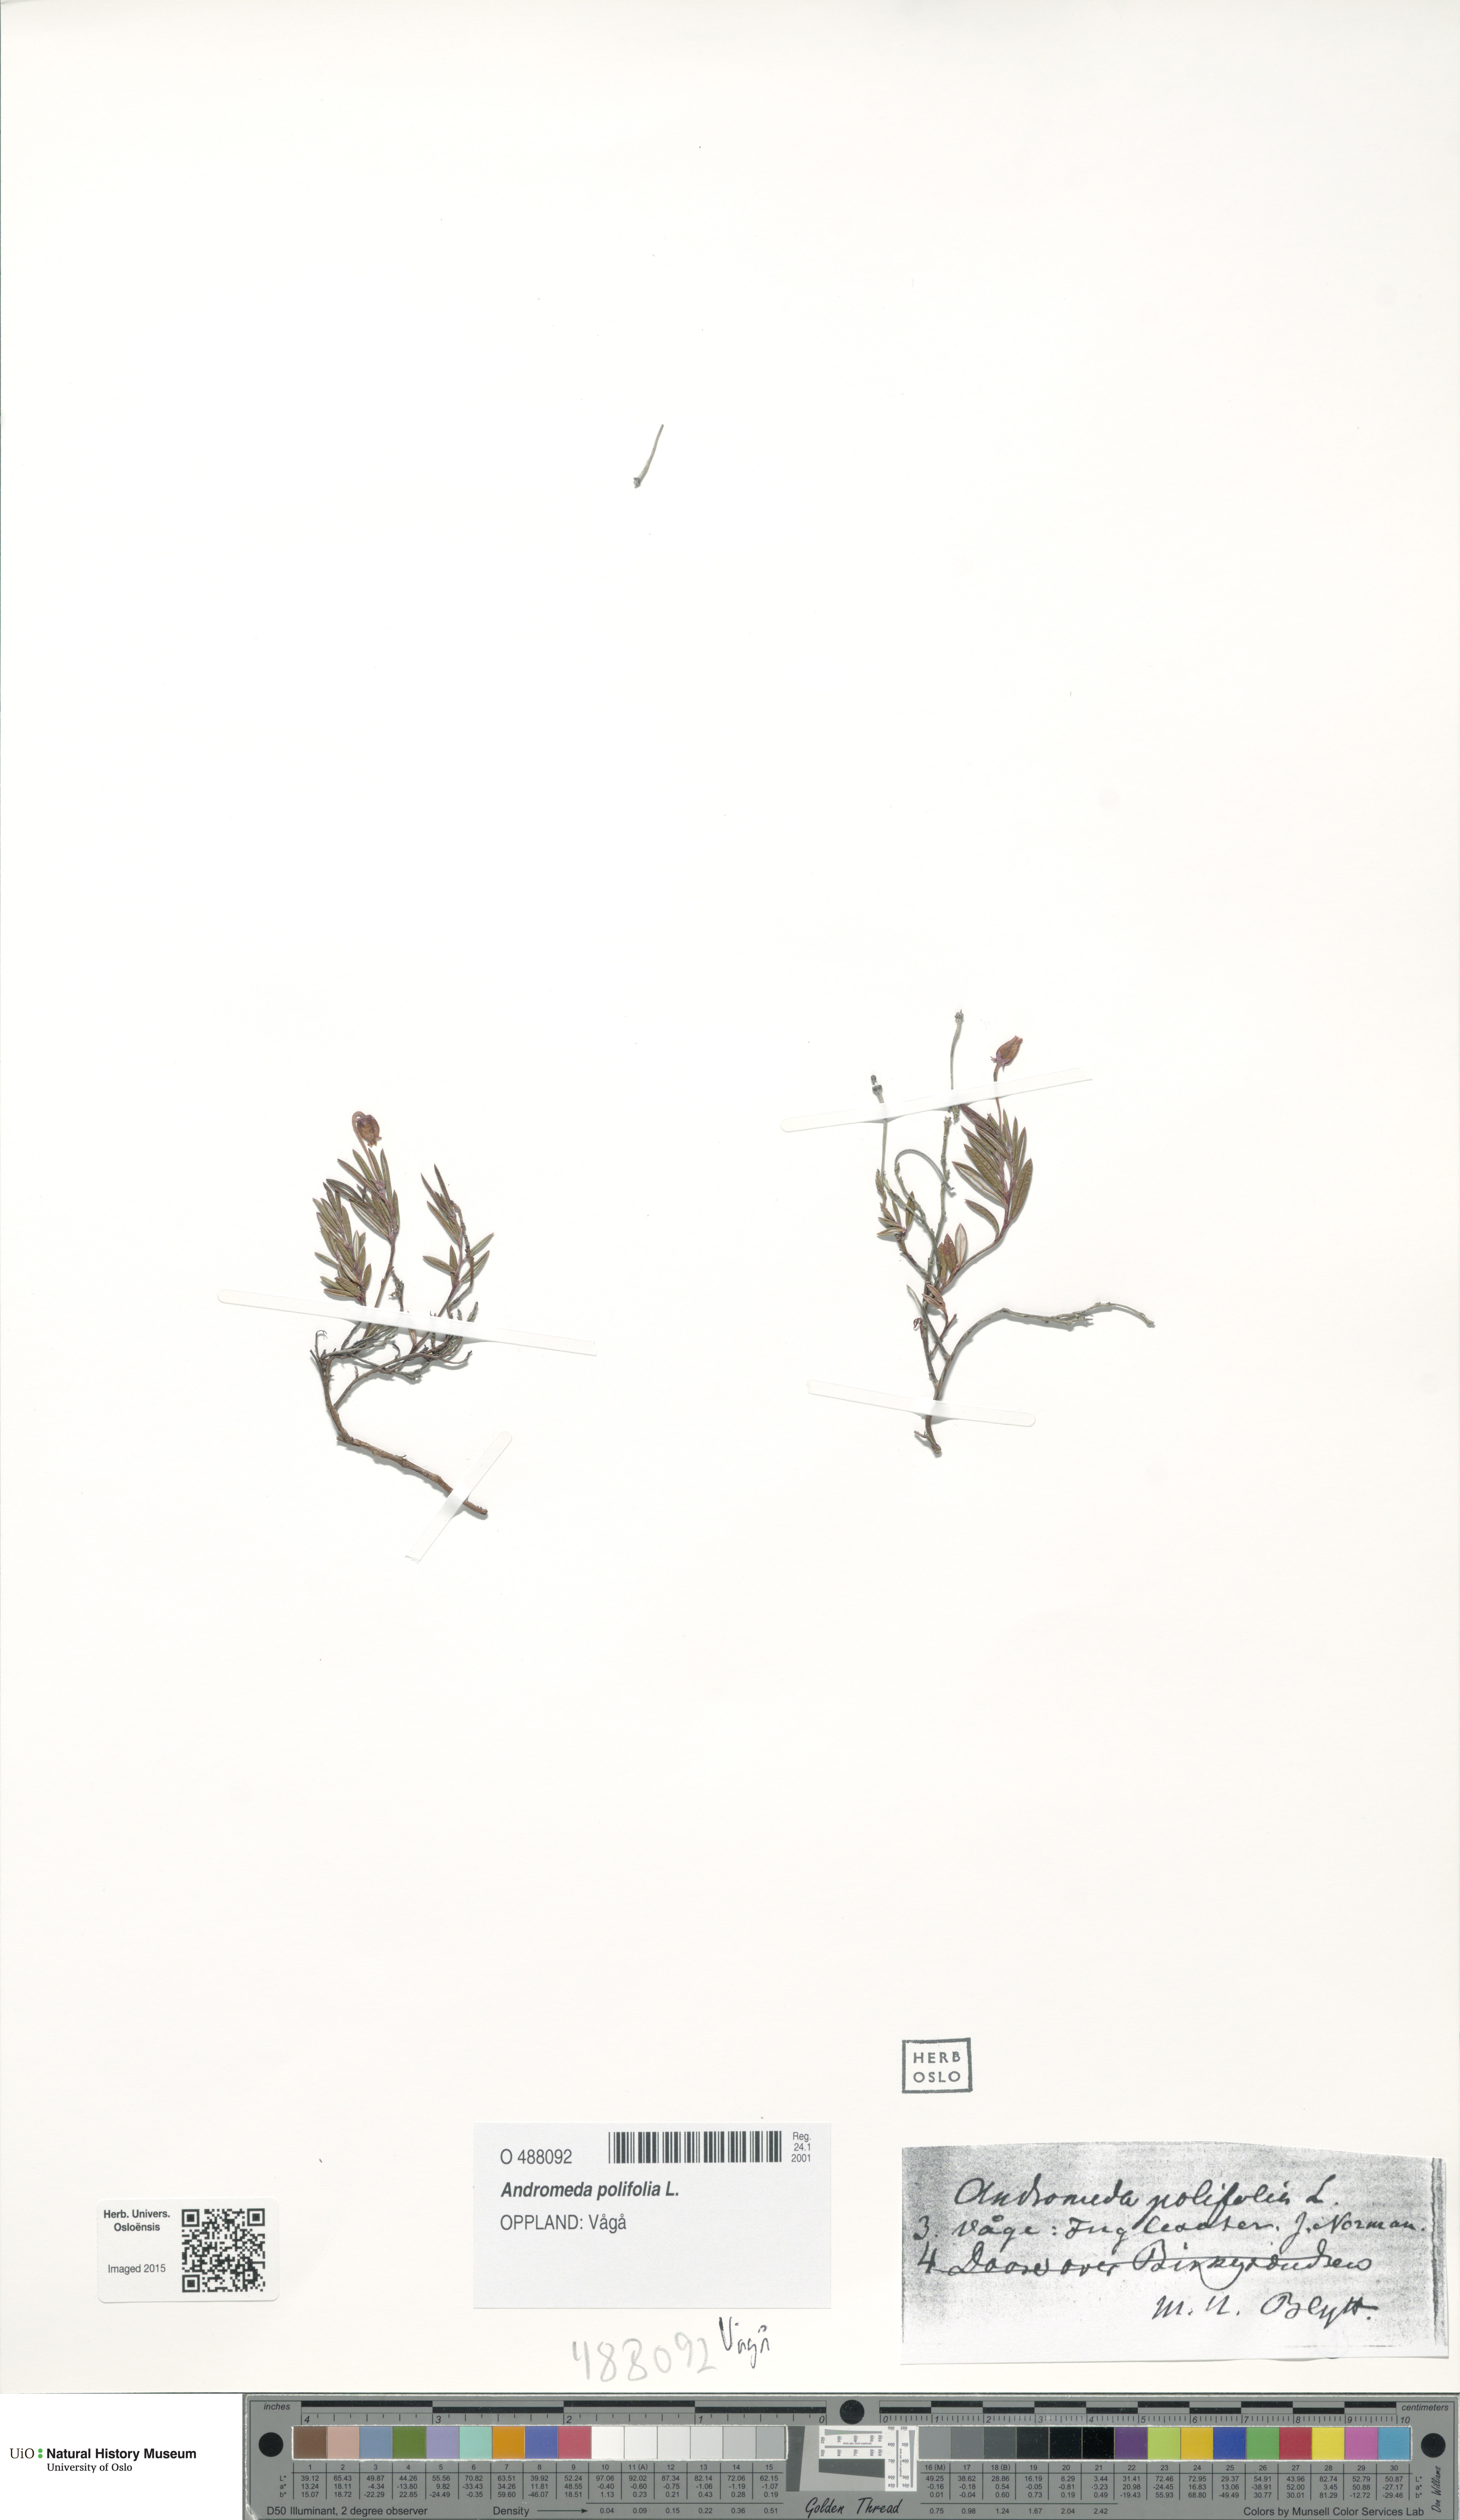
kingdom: Plantae
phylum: Tracheophyta
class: Magnoliopsida
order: Ericales
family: Ericaceae
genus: Andromeda
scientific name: Andromeda polifolia
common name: Bog-rosemary
